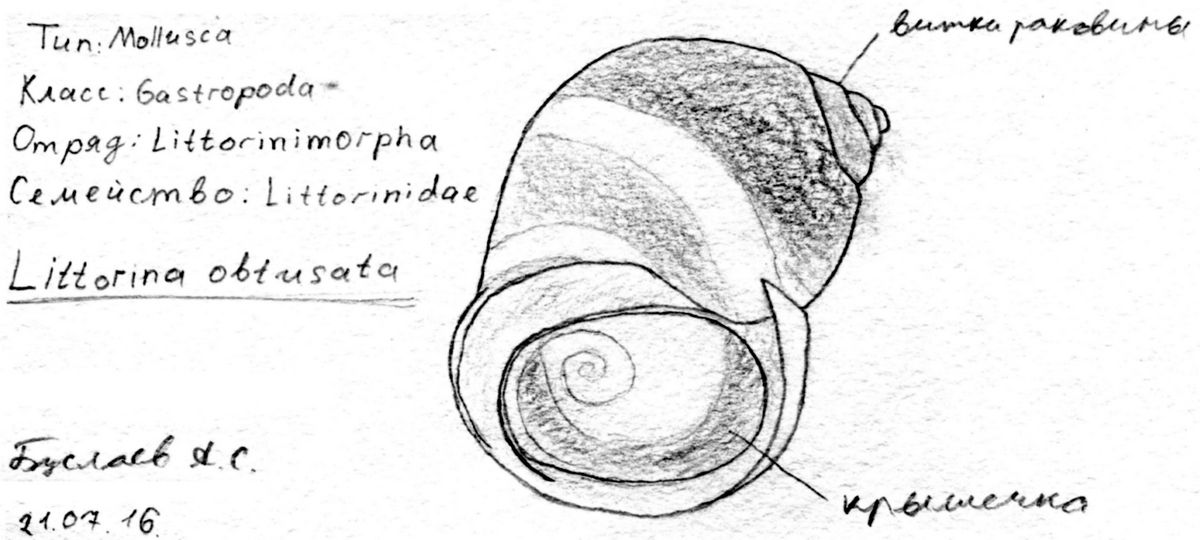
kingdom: Animalia
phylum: Mollusca
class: Gastropoda
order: Littorinimorpha
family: Littorinidae
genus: Littorina
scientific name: Littorina obtusata
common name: Flat periwinkle
